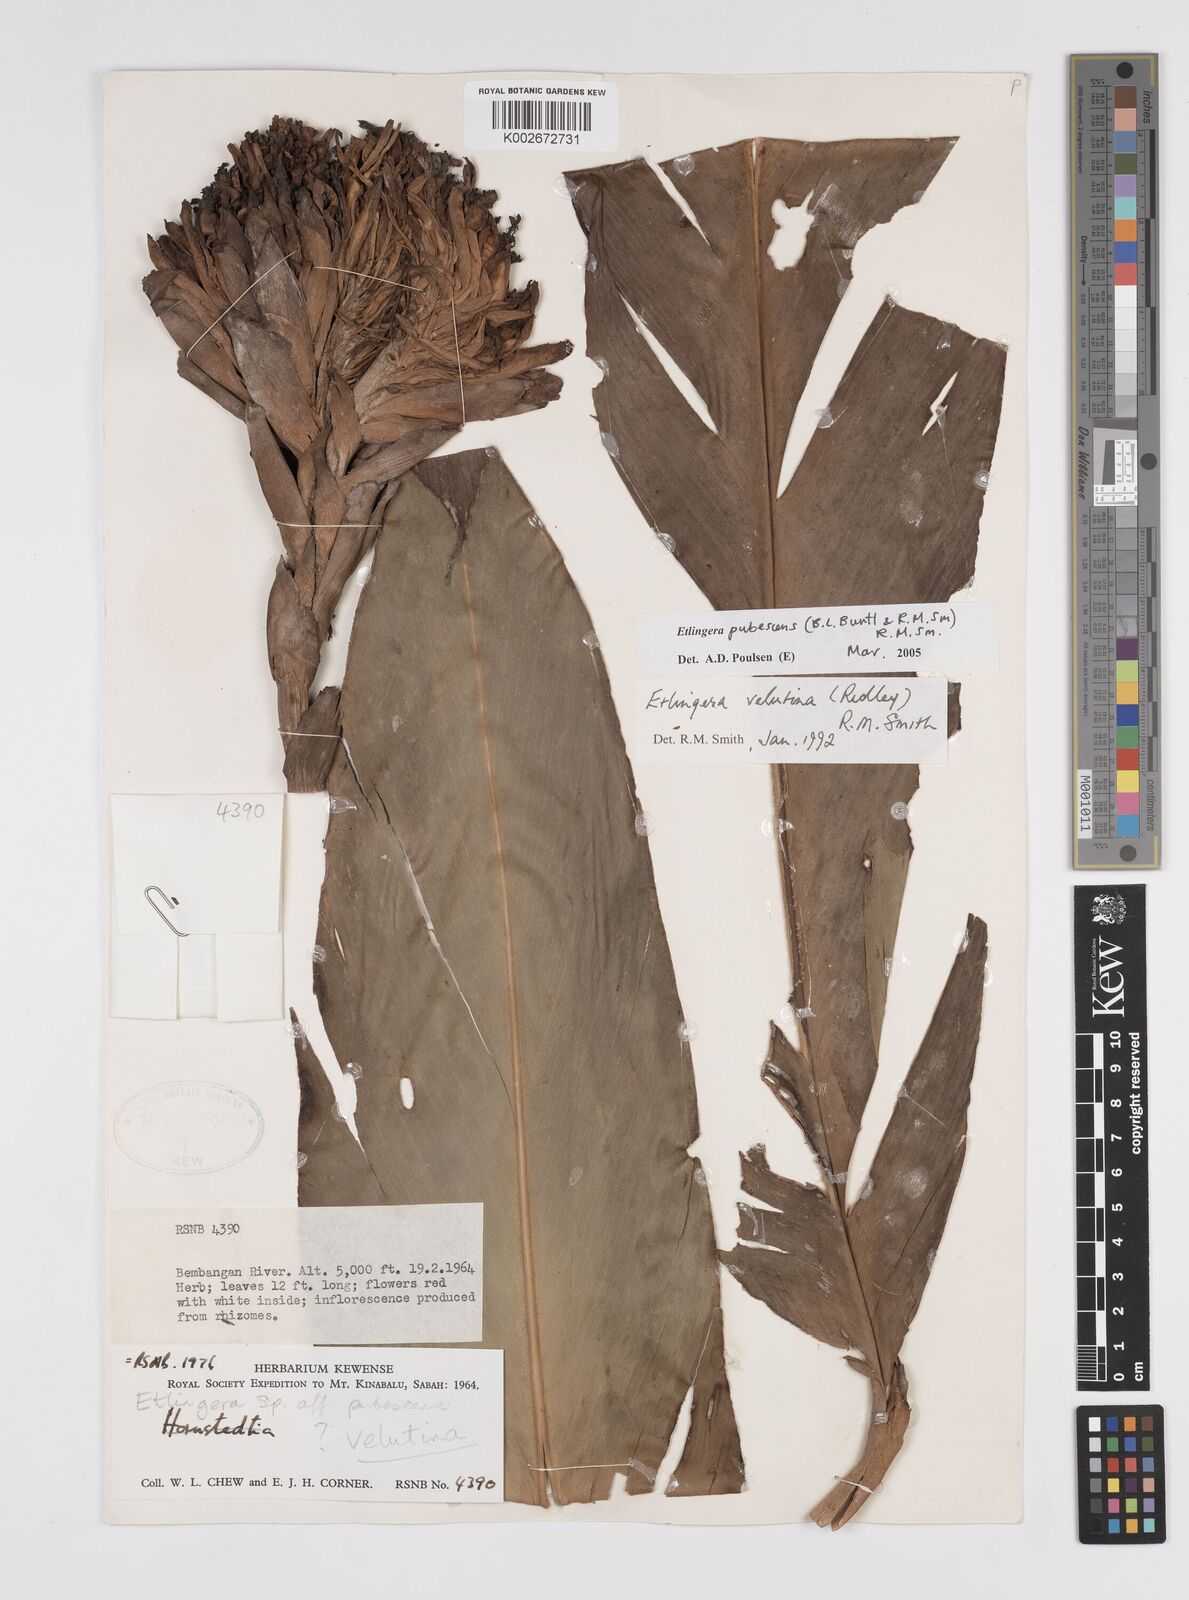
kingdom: Plantae
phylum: Tracheophyta
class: Liliopsida
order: Zingiberales
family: Zingiberaceae
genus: Etlingera
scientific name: Etlingera pubescens
